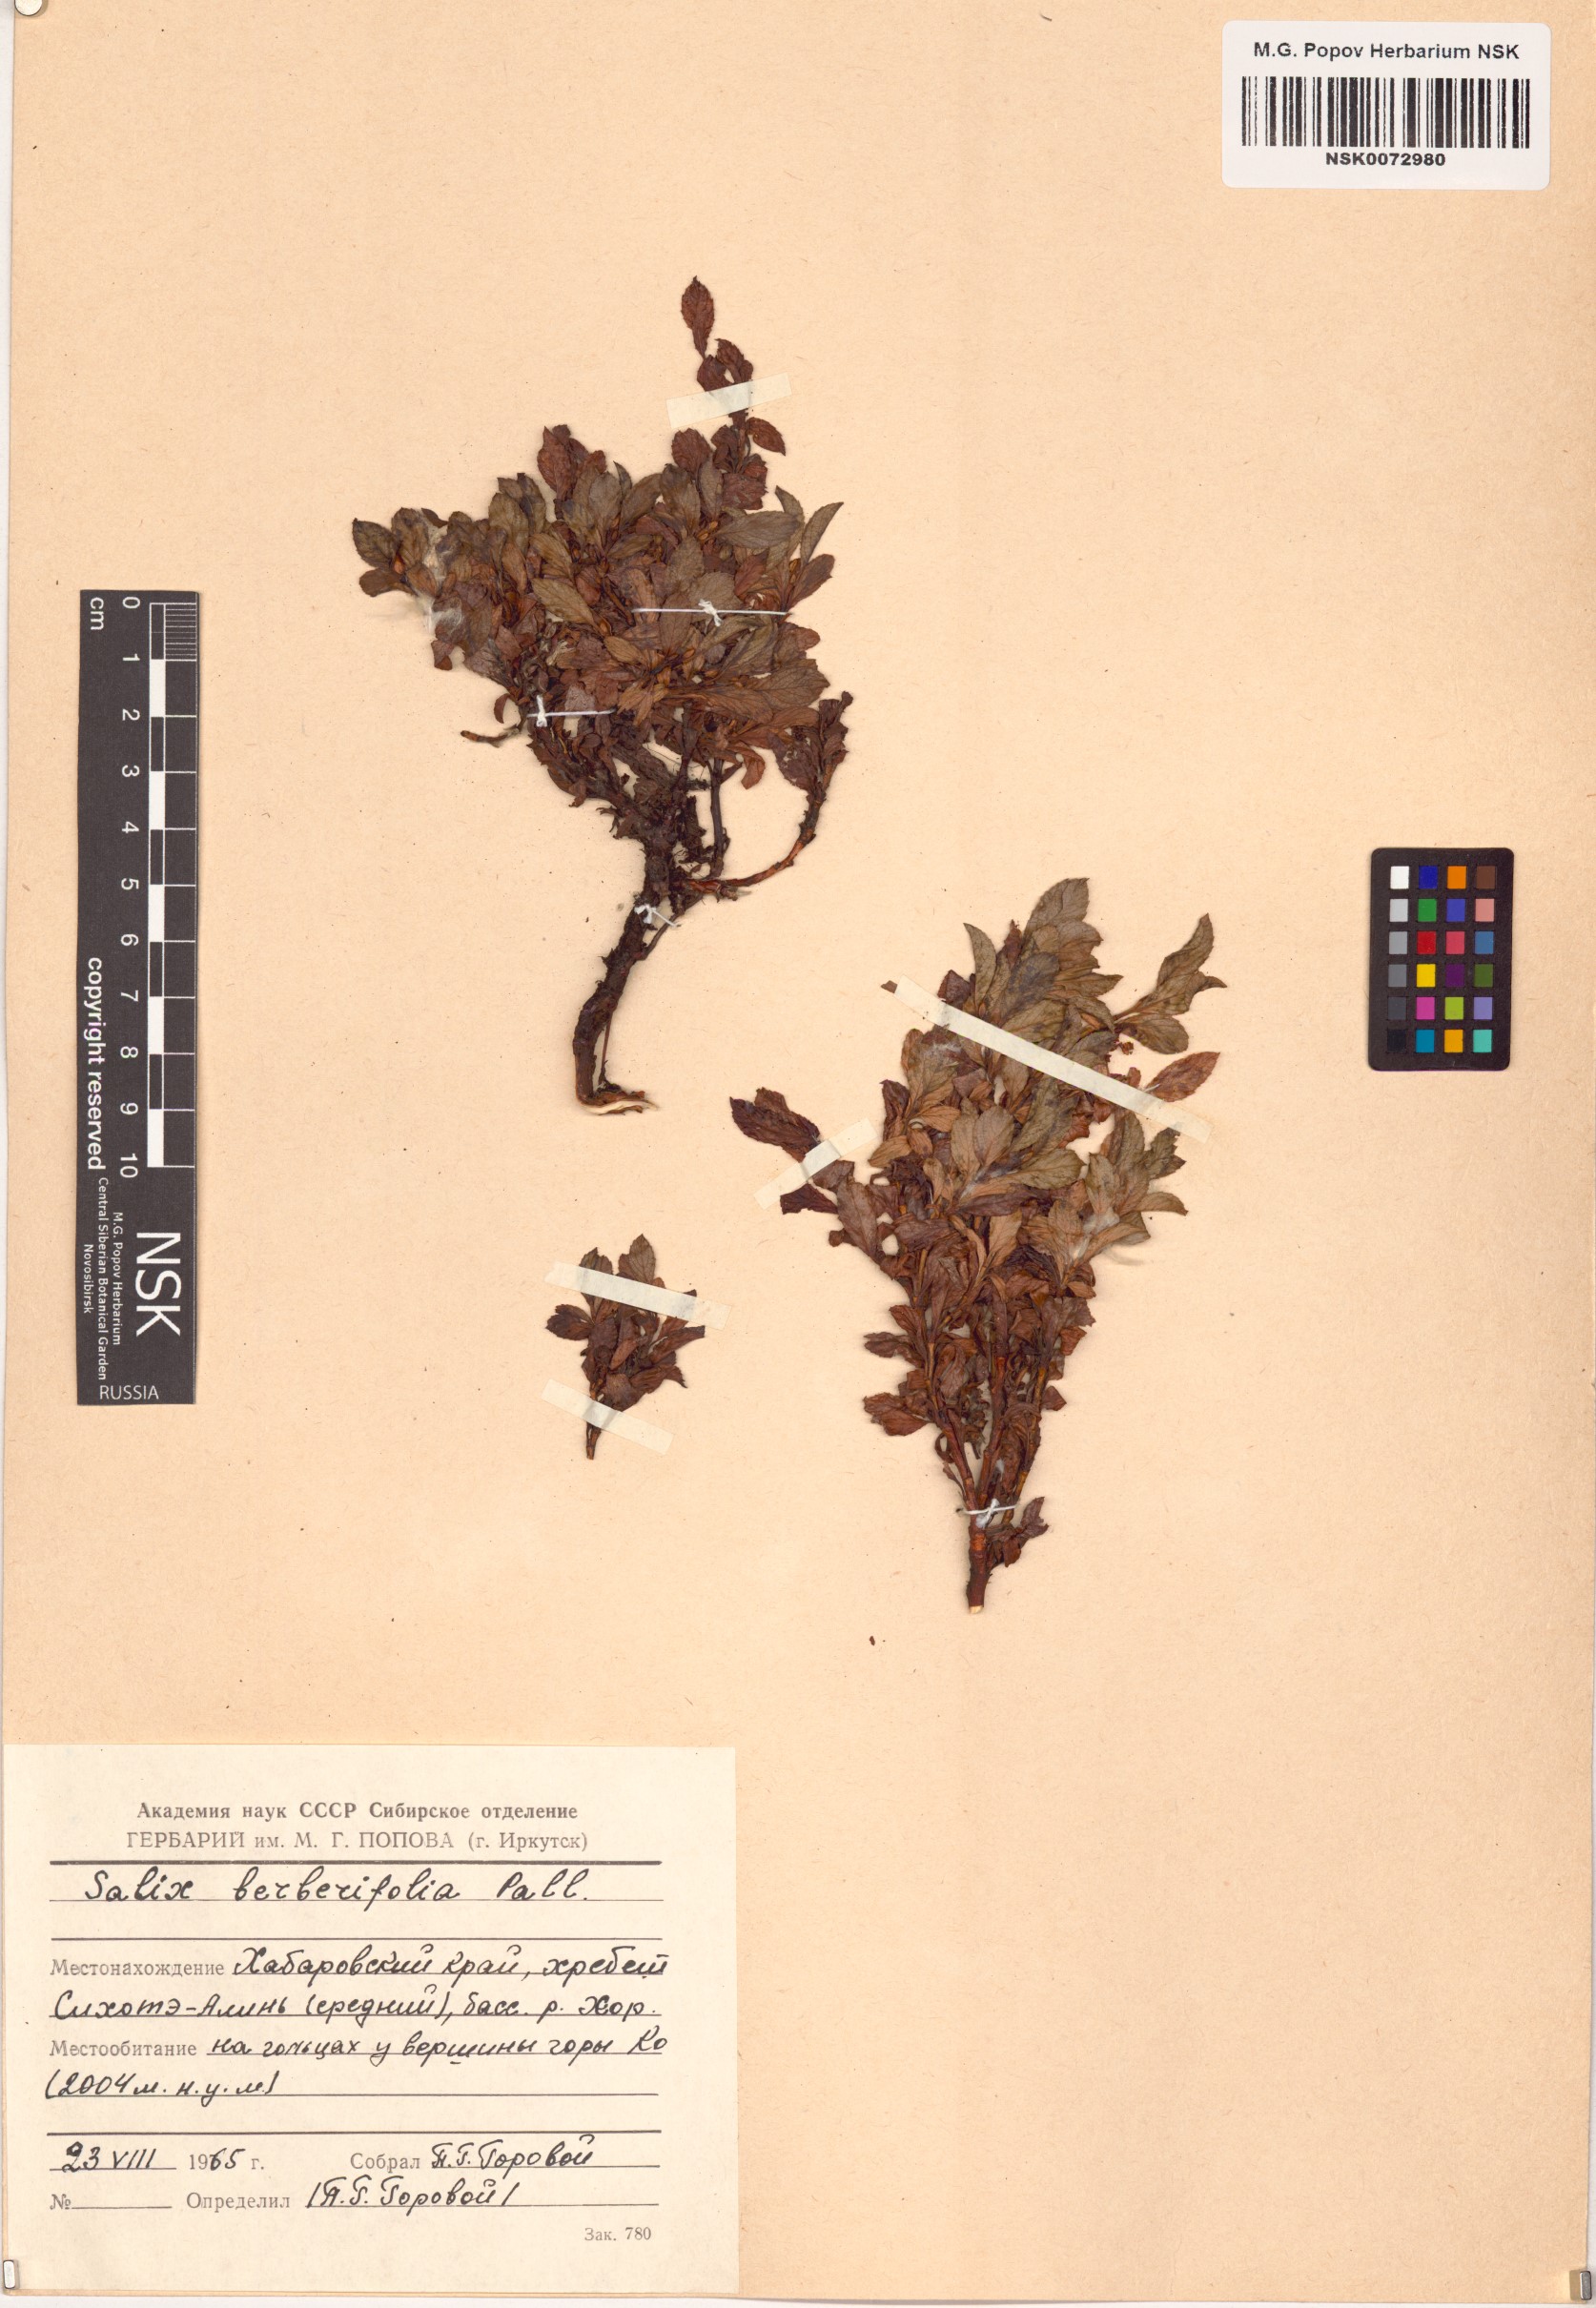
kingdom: Plantae
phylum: Tracheophyta
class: Magnoliopsida
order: Malpighiales
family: Salicaceae
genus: Salix
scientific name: Salix berberifolia
